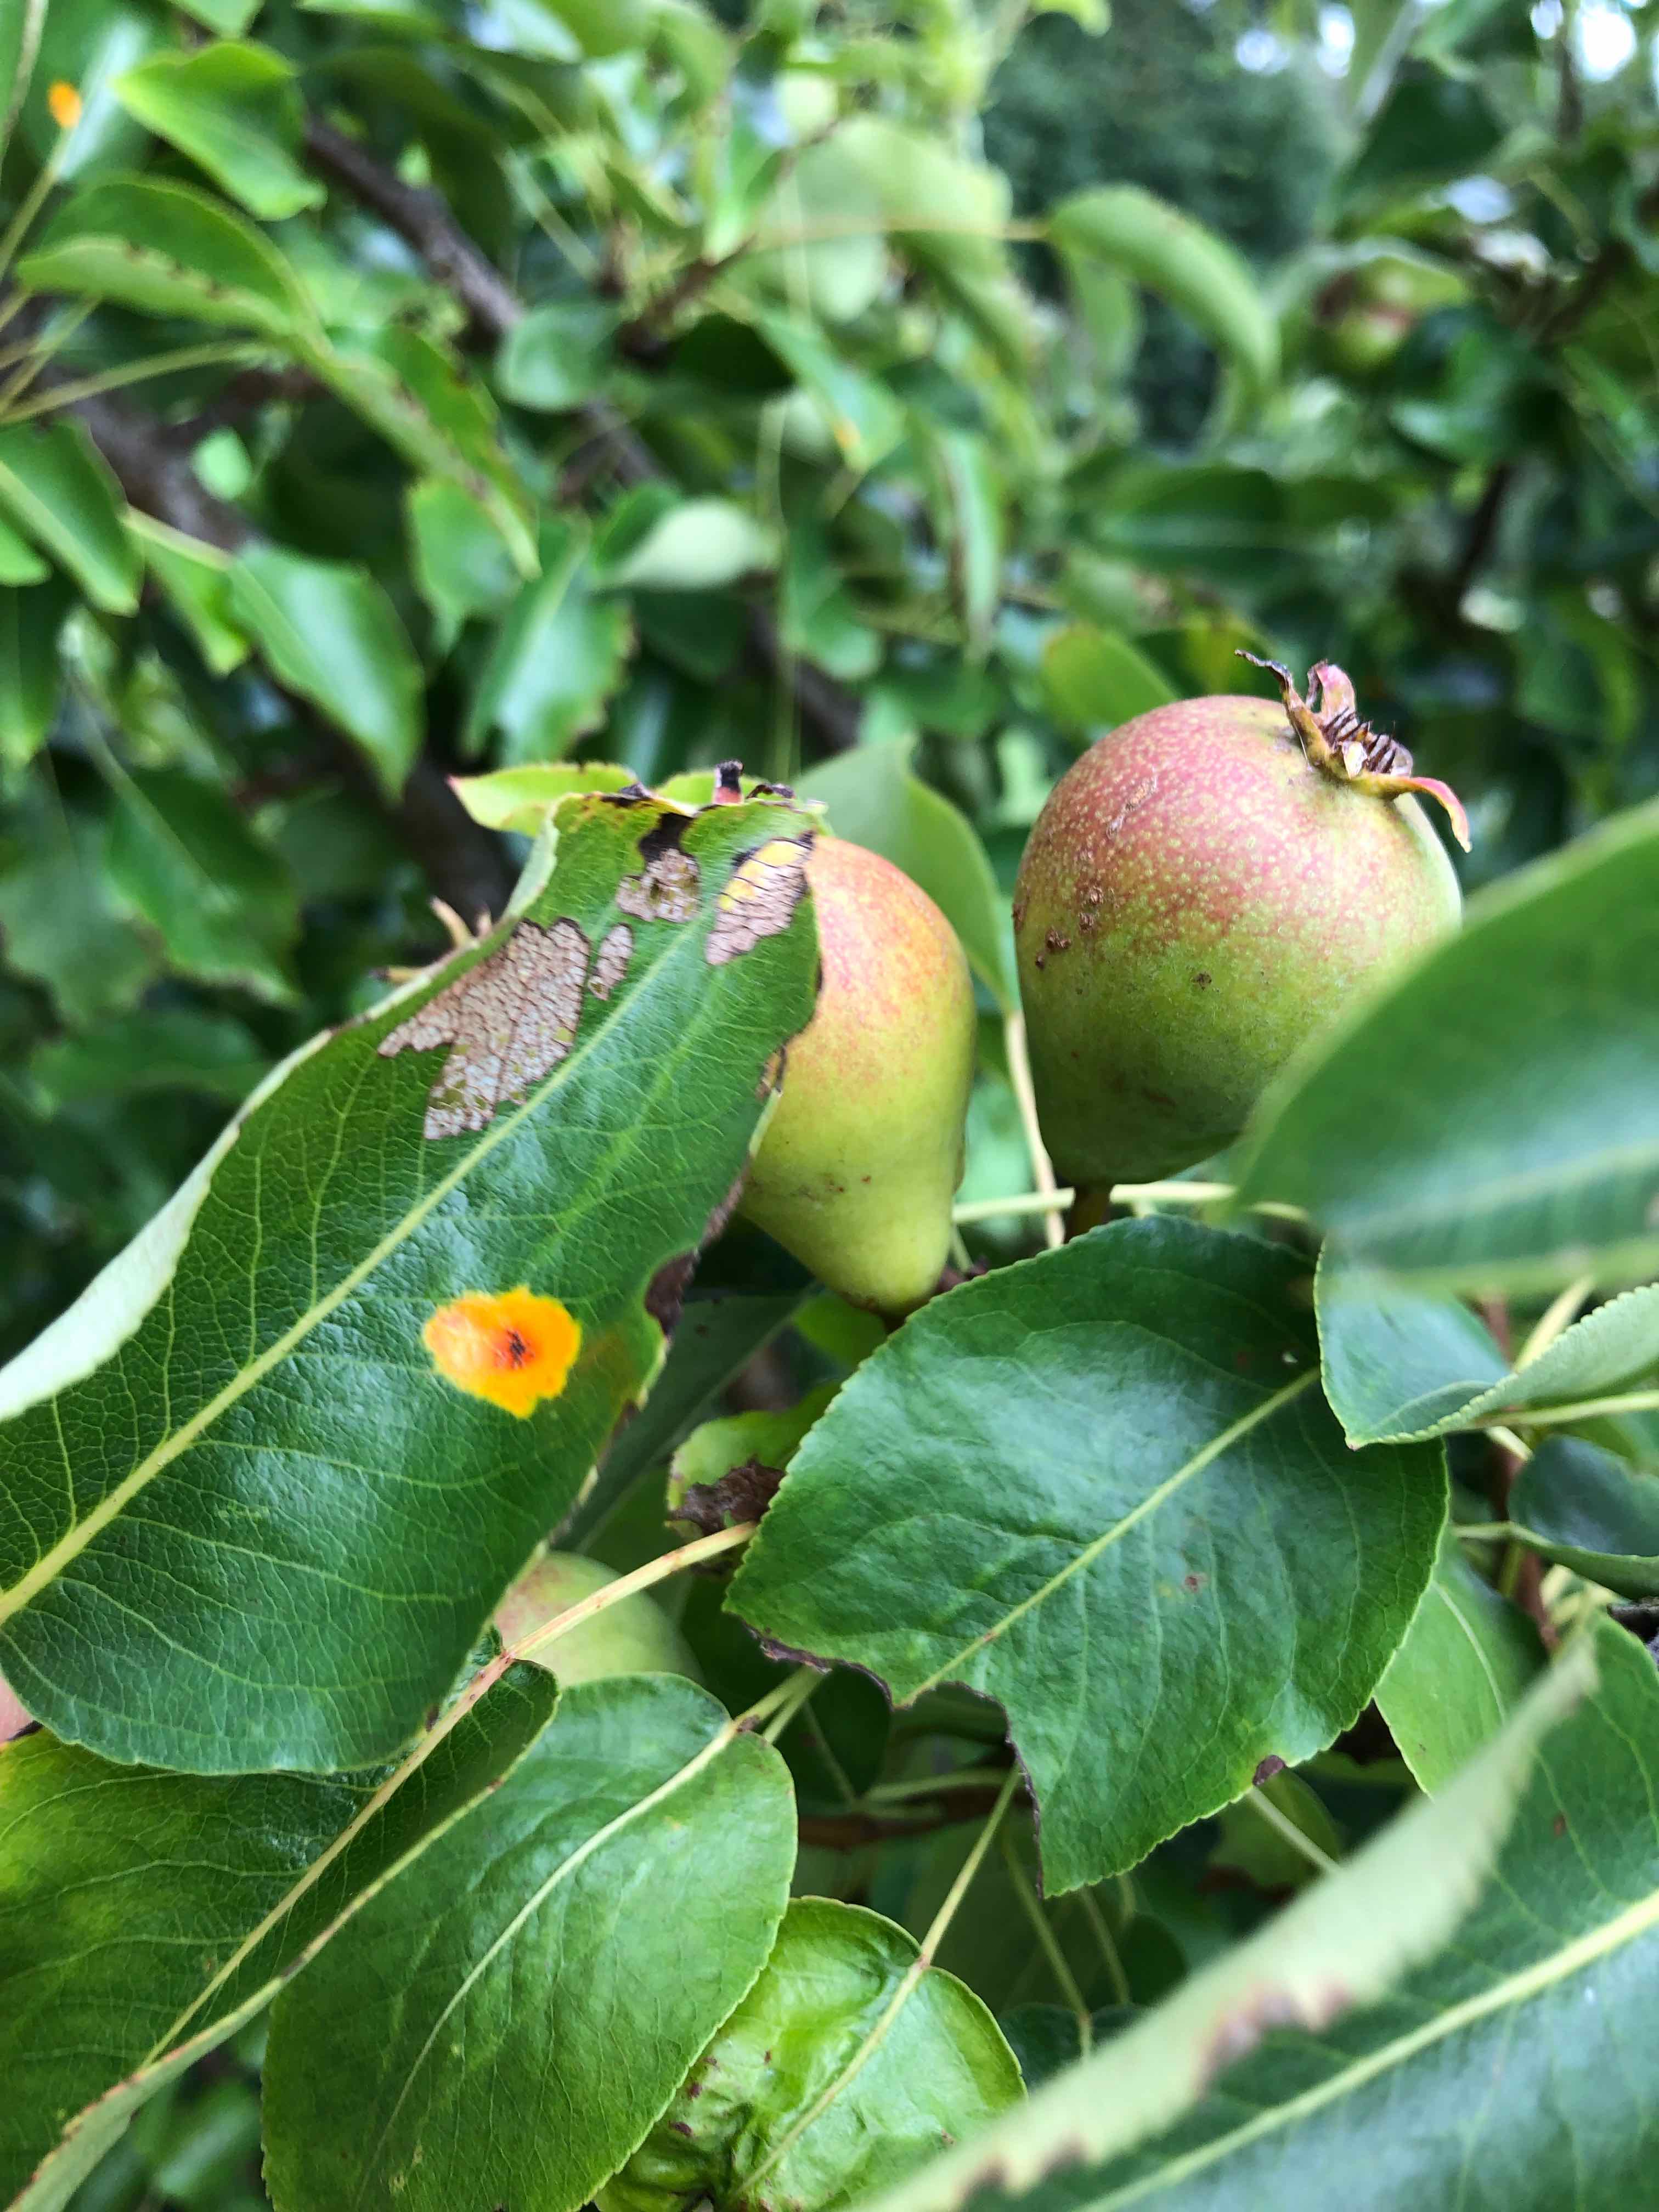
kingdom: Fungi
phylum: Basidiomycota
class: Pucciniomycetes
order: Pucciniales
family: Gymnosporangiaceae
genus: Gymnosporangium
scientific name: Gymnosporangium sabinae
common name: pæregitter-bævrerust
